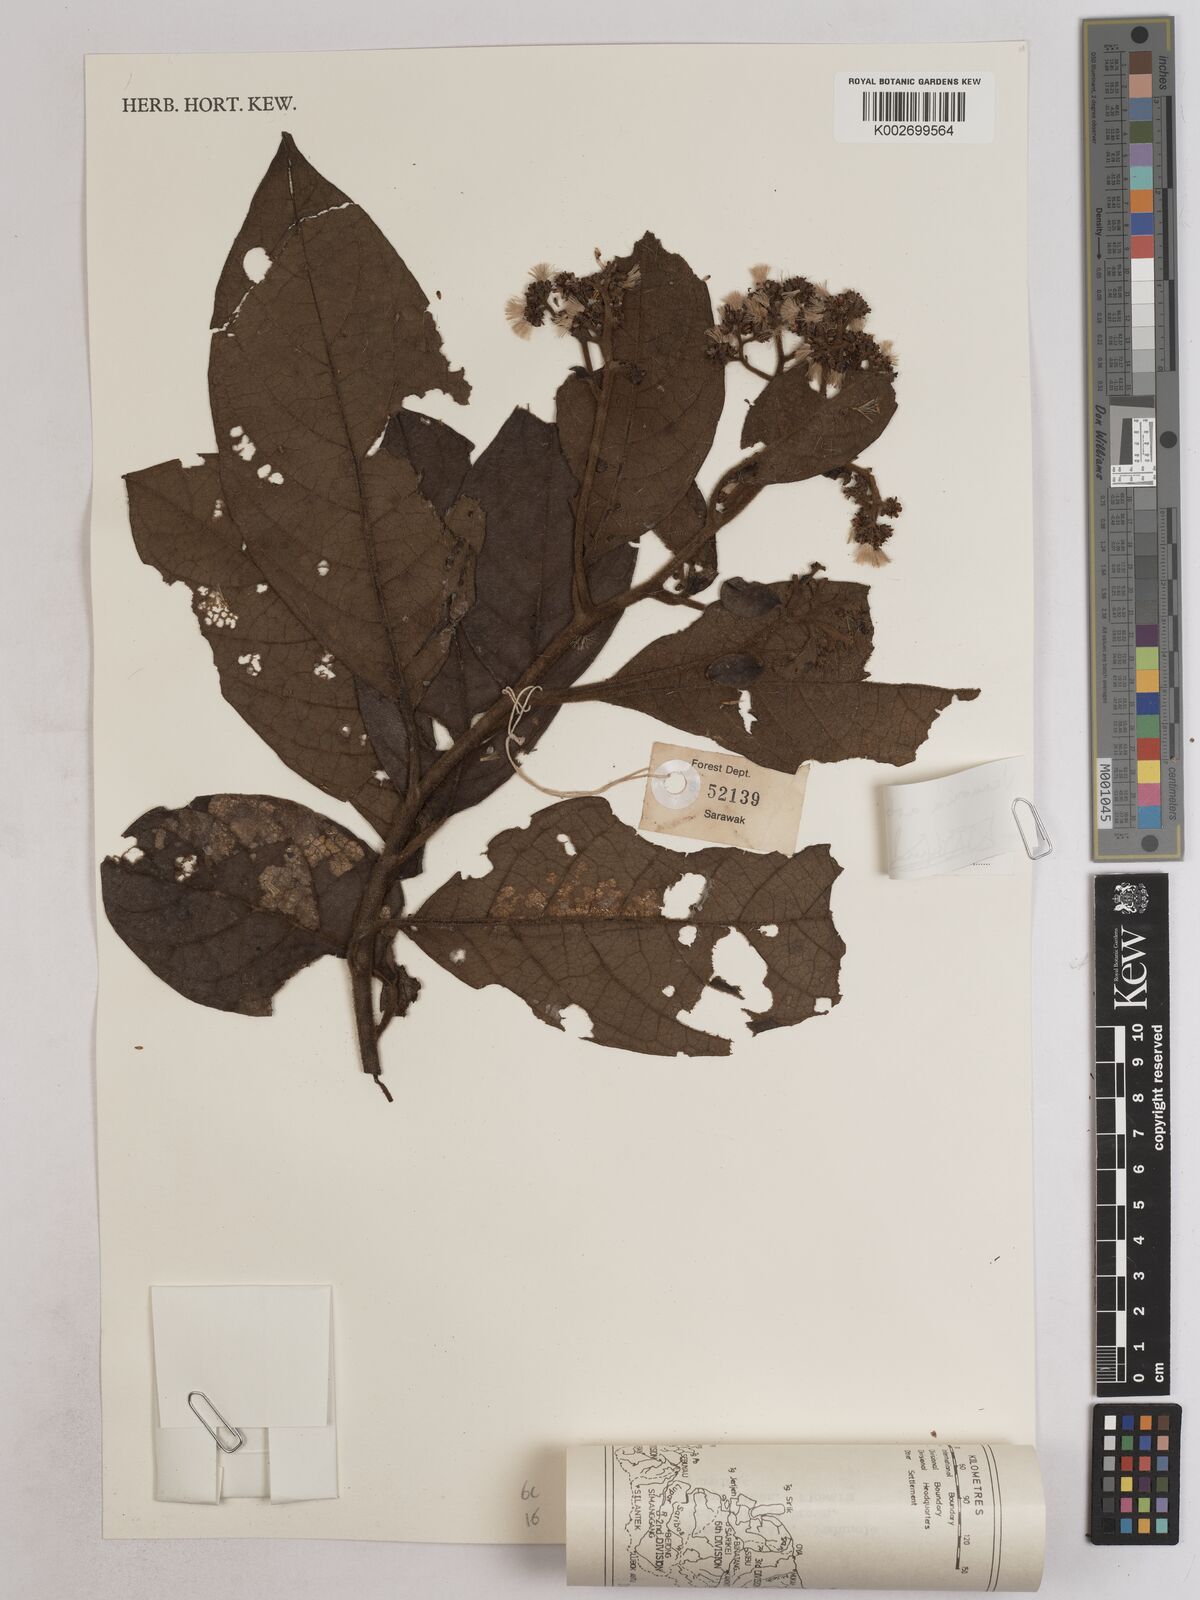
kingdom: Plantae
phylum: Tracheophyta
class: Magnoliopsida
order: Asterales
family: Asteraceae
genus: Strobocalyx
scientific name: Strobocalyx arborea
